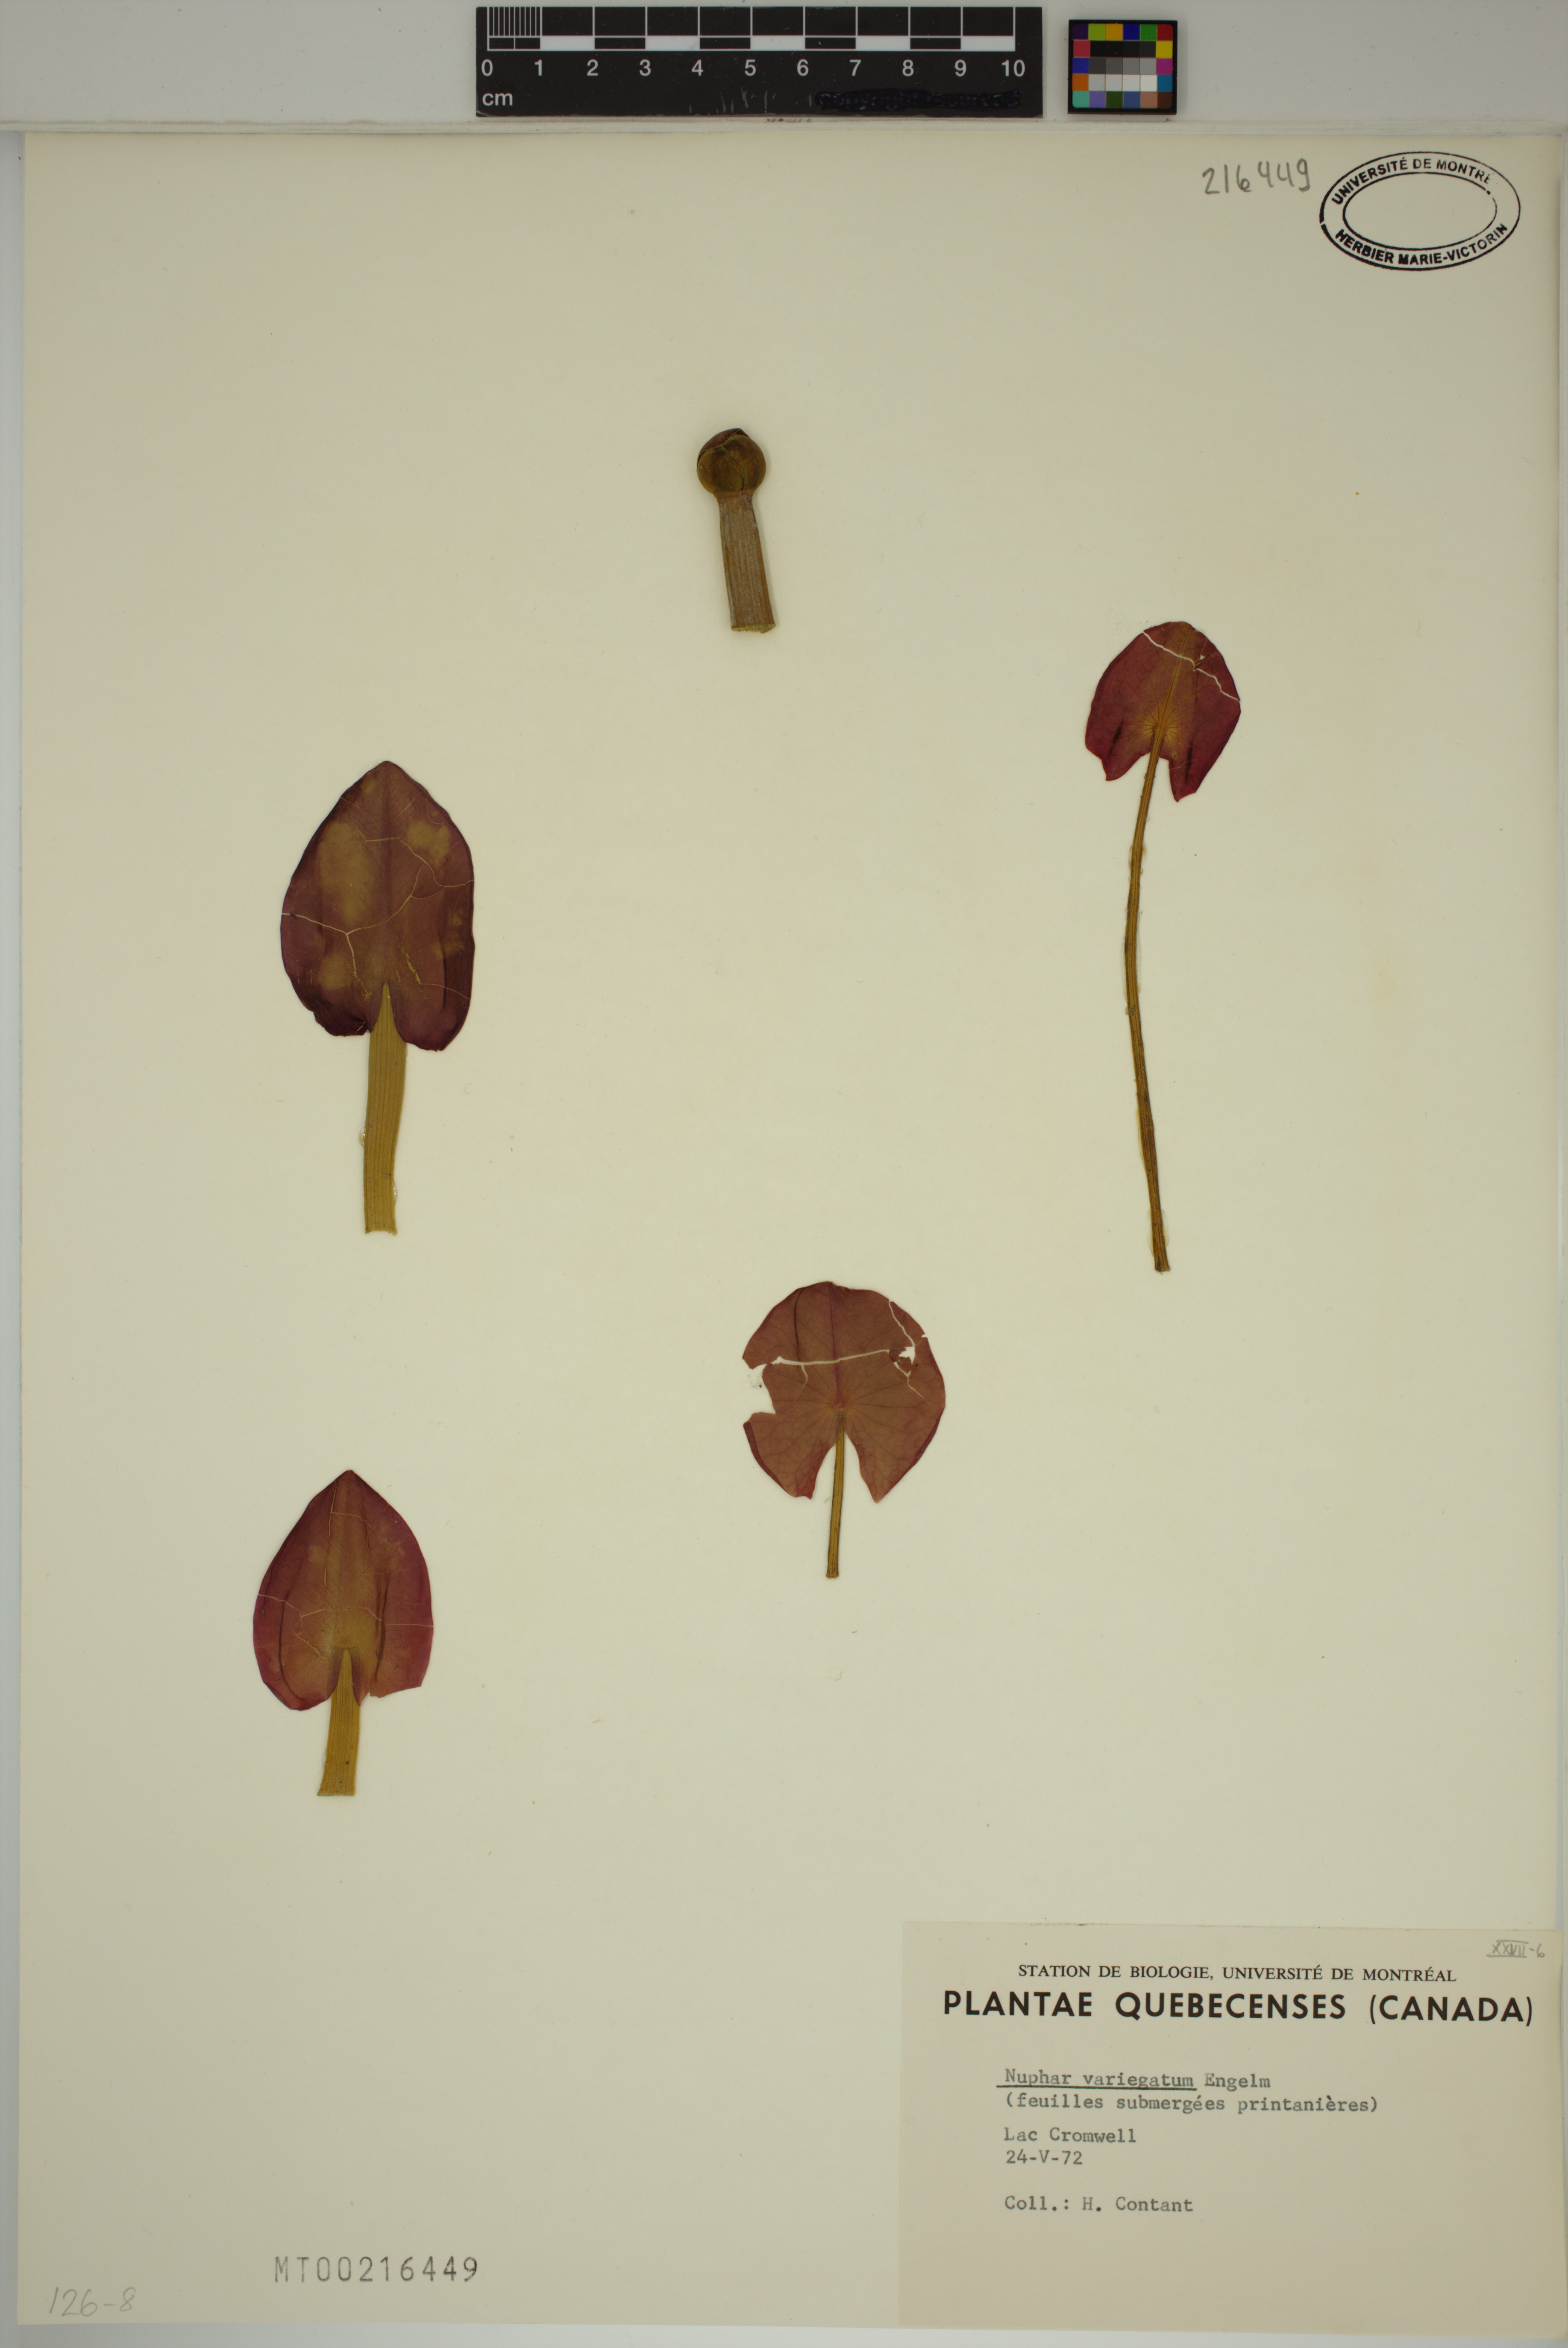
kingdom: Plantae
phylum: Tracheophyta
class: Magnoliopsida
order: Nymphaeales
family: Nymphaeaceae
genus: Nuphar
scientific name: Nuphar variegata
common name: Beaver-root
